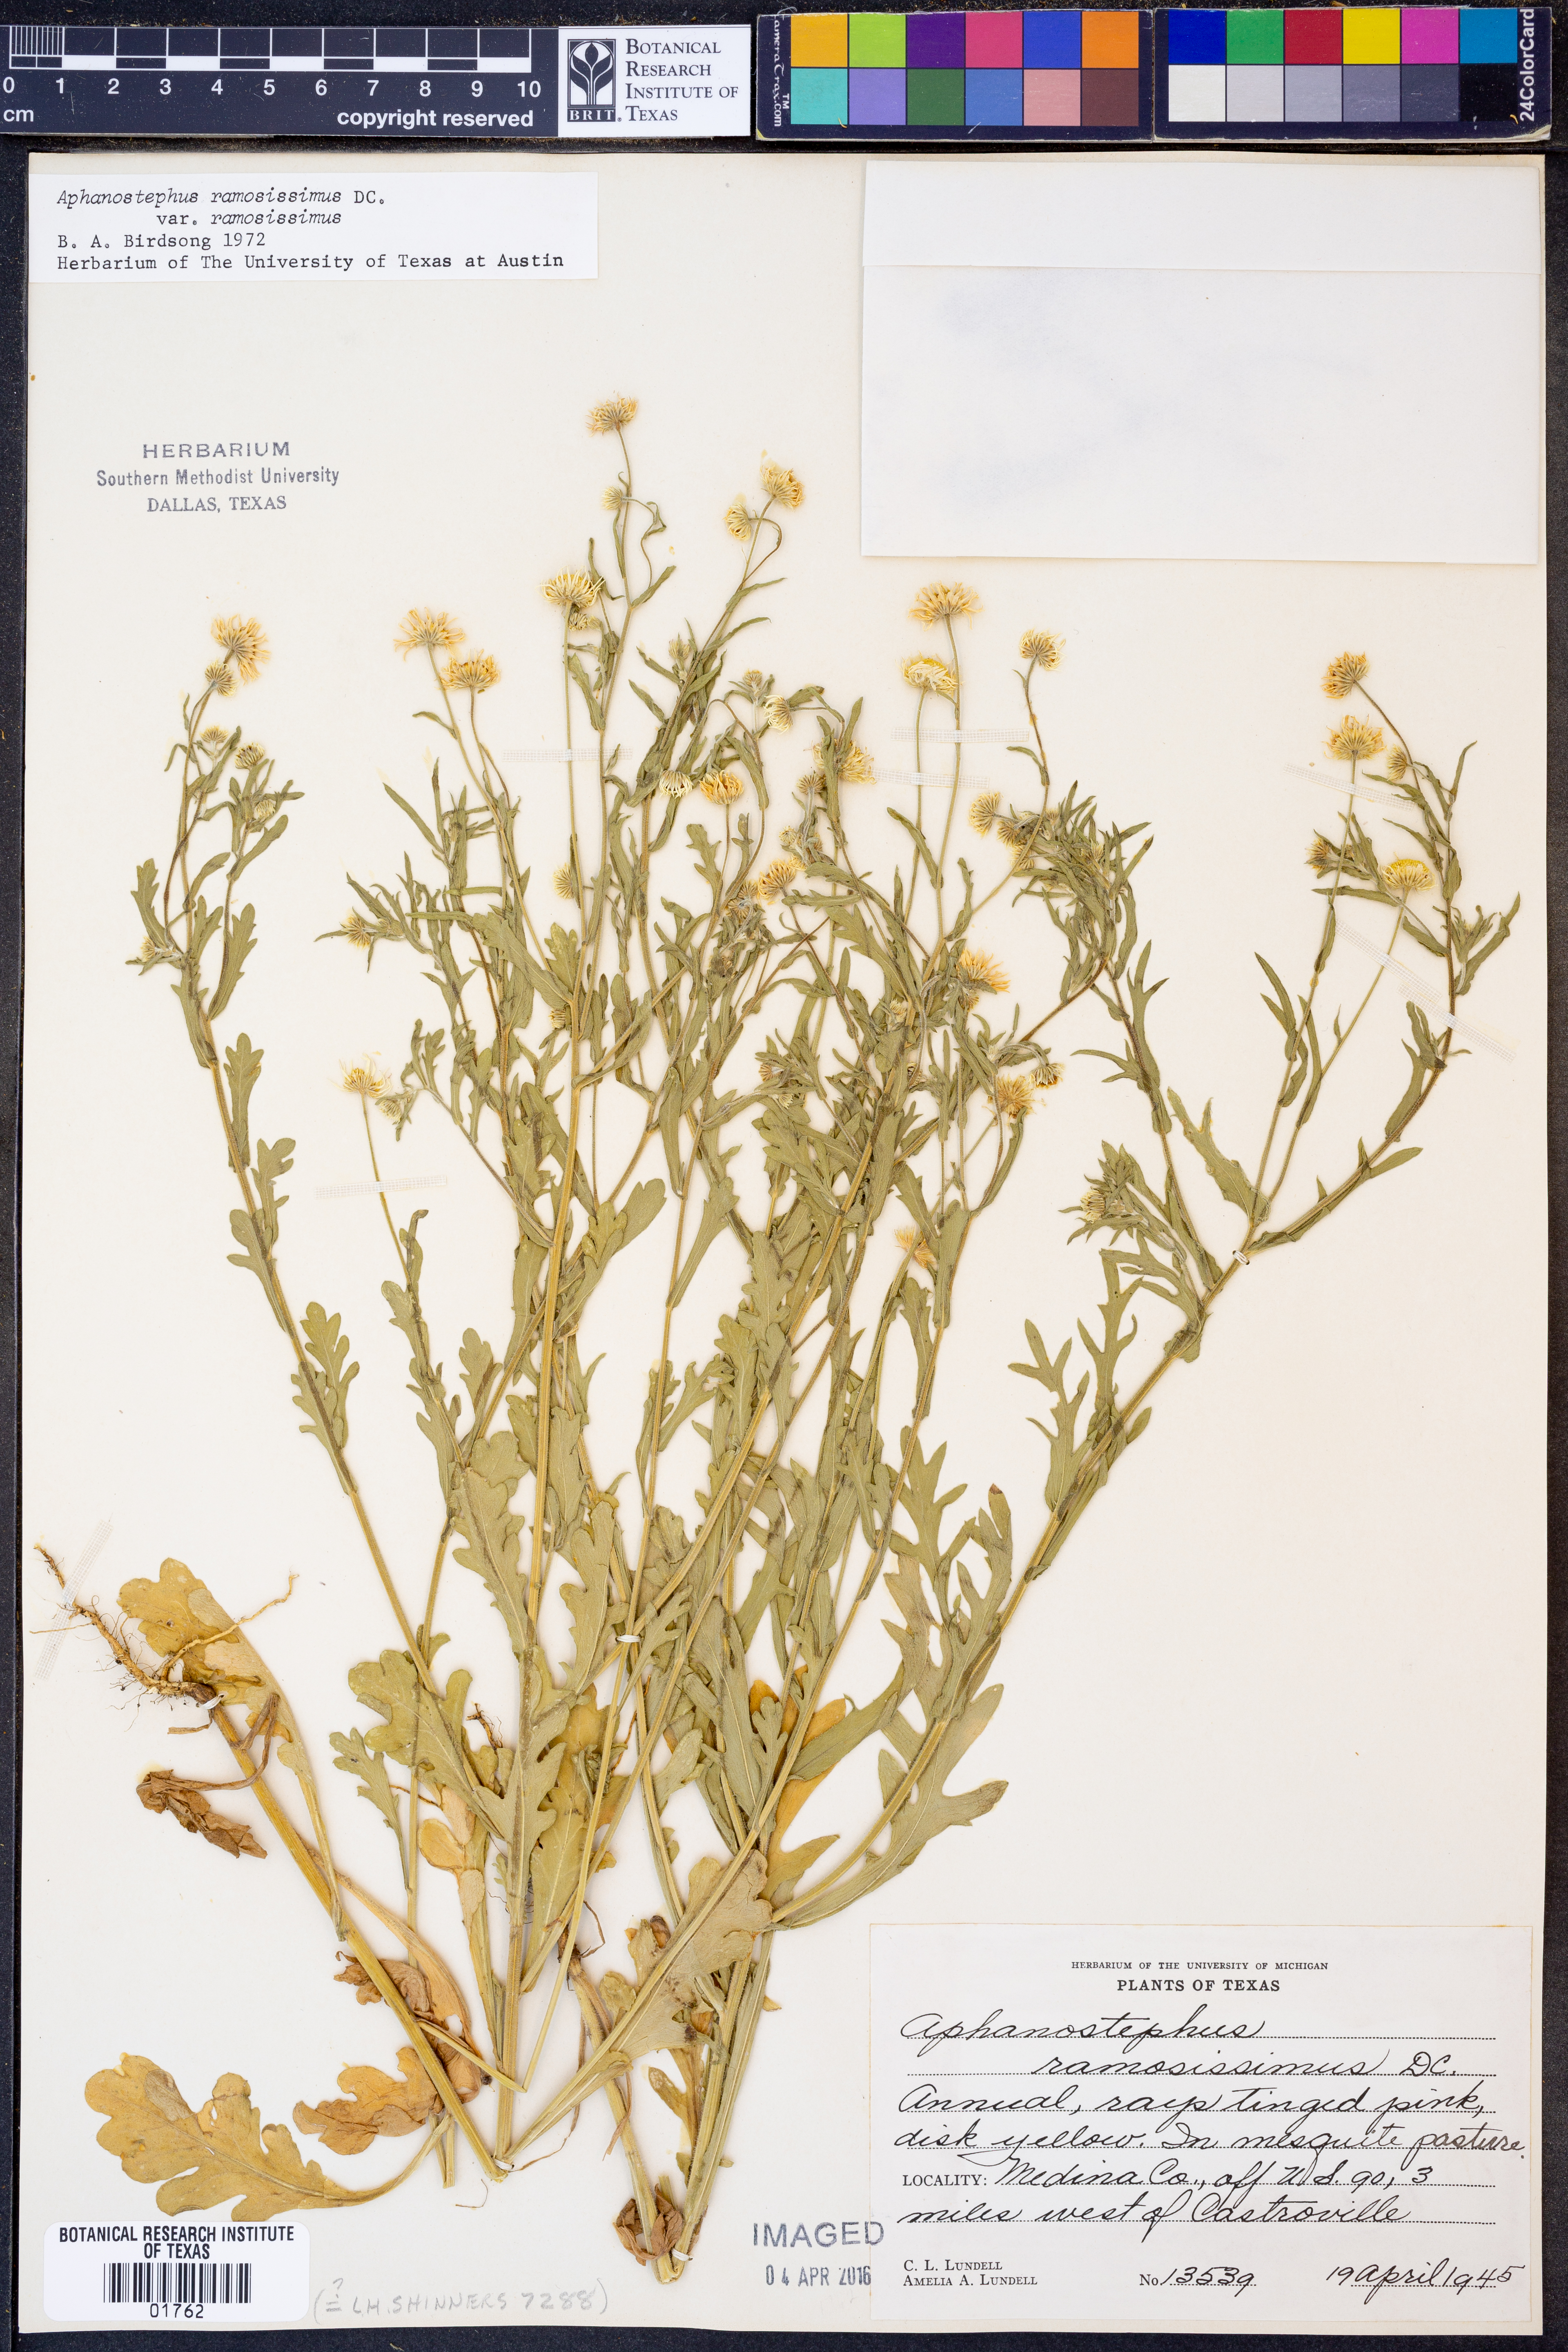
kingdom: Plantae
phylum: Tracheophyta
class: Magnoliopsida
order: Asterales
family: Asteraceae
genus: Aphanostephus
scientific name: Aphanostephus ramosissimus
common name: Plains lazy daisy
